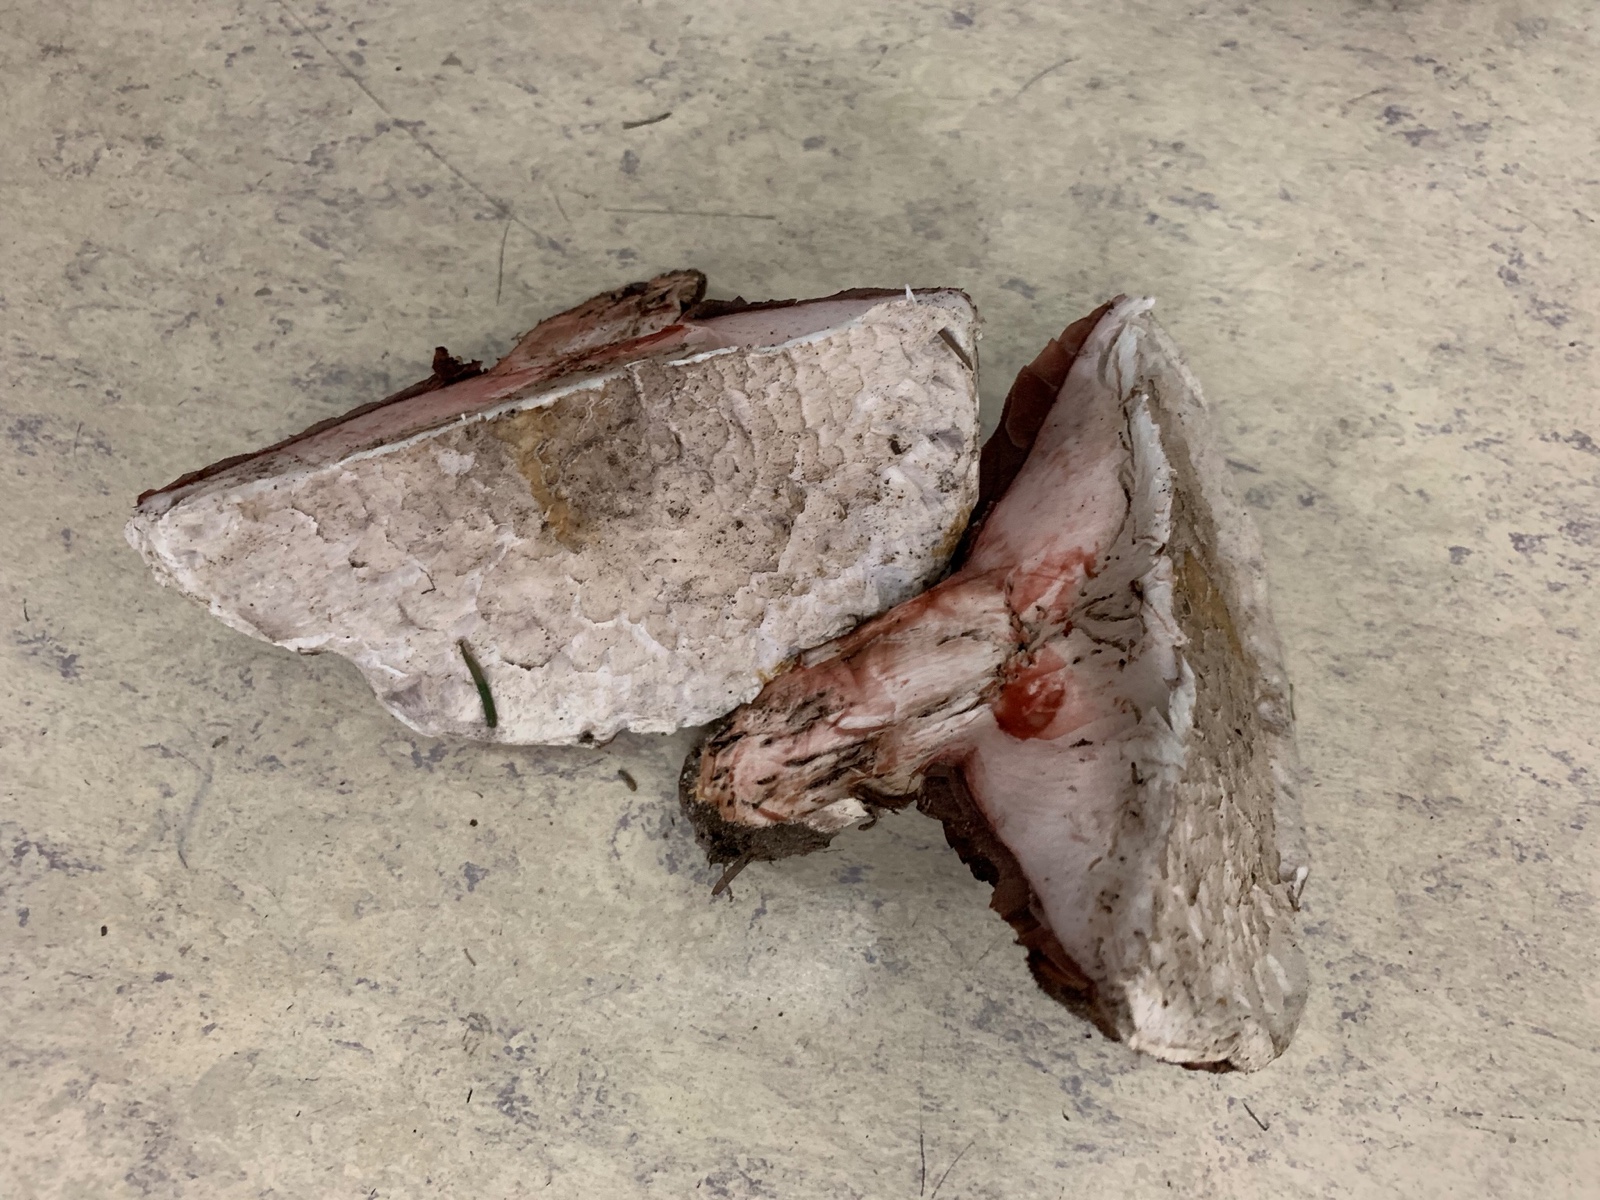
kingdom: Fungi
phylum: Basidiomycota
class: Agaricomycetes
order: Agaricales
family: Agaricaceae
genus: Agaricus
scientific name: Agaricus bernardii
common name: strandengs-champignon
